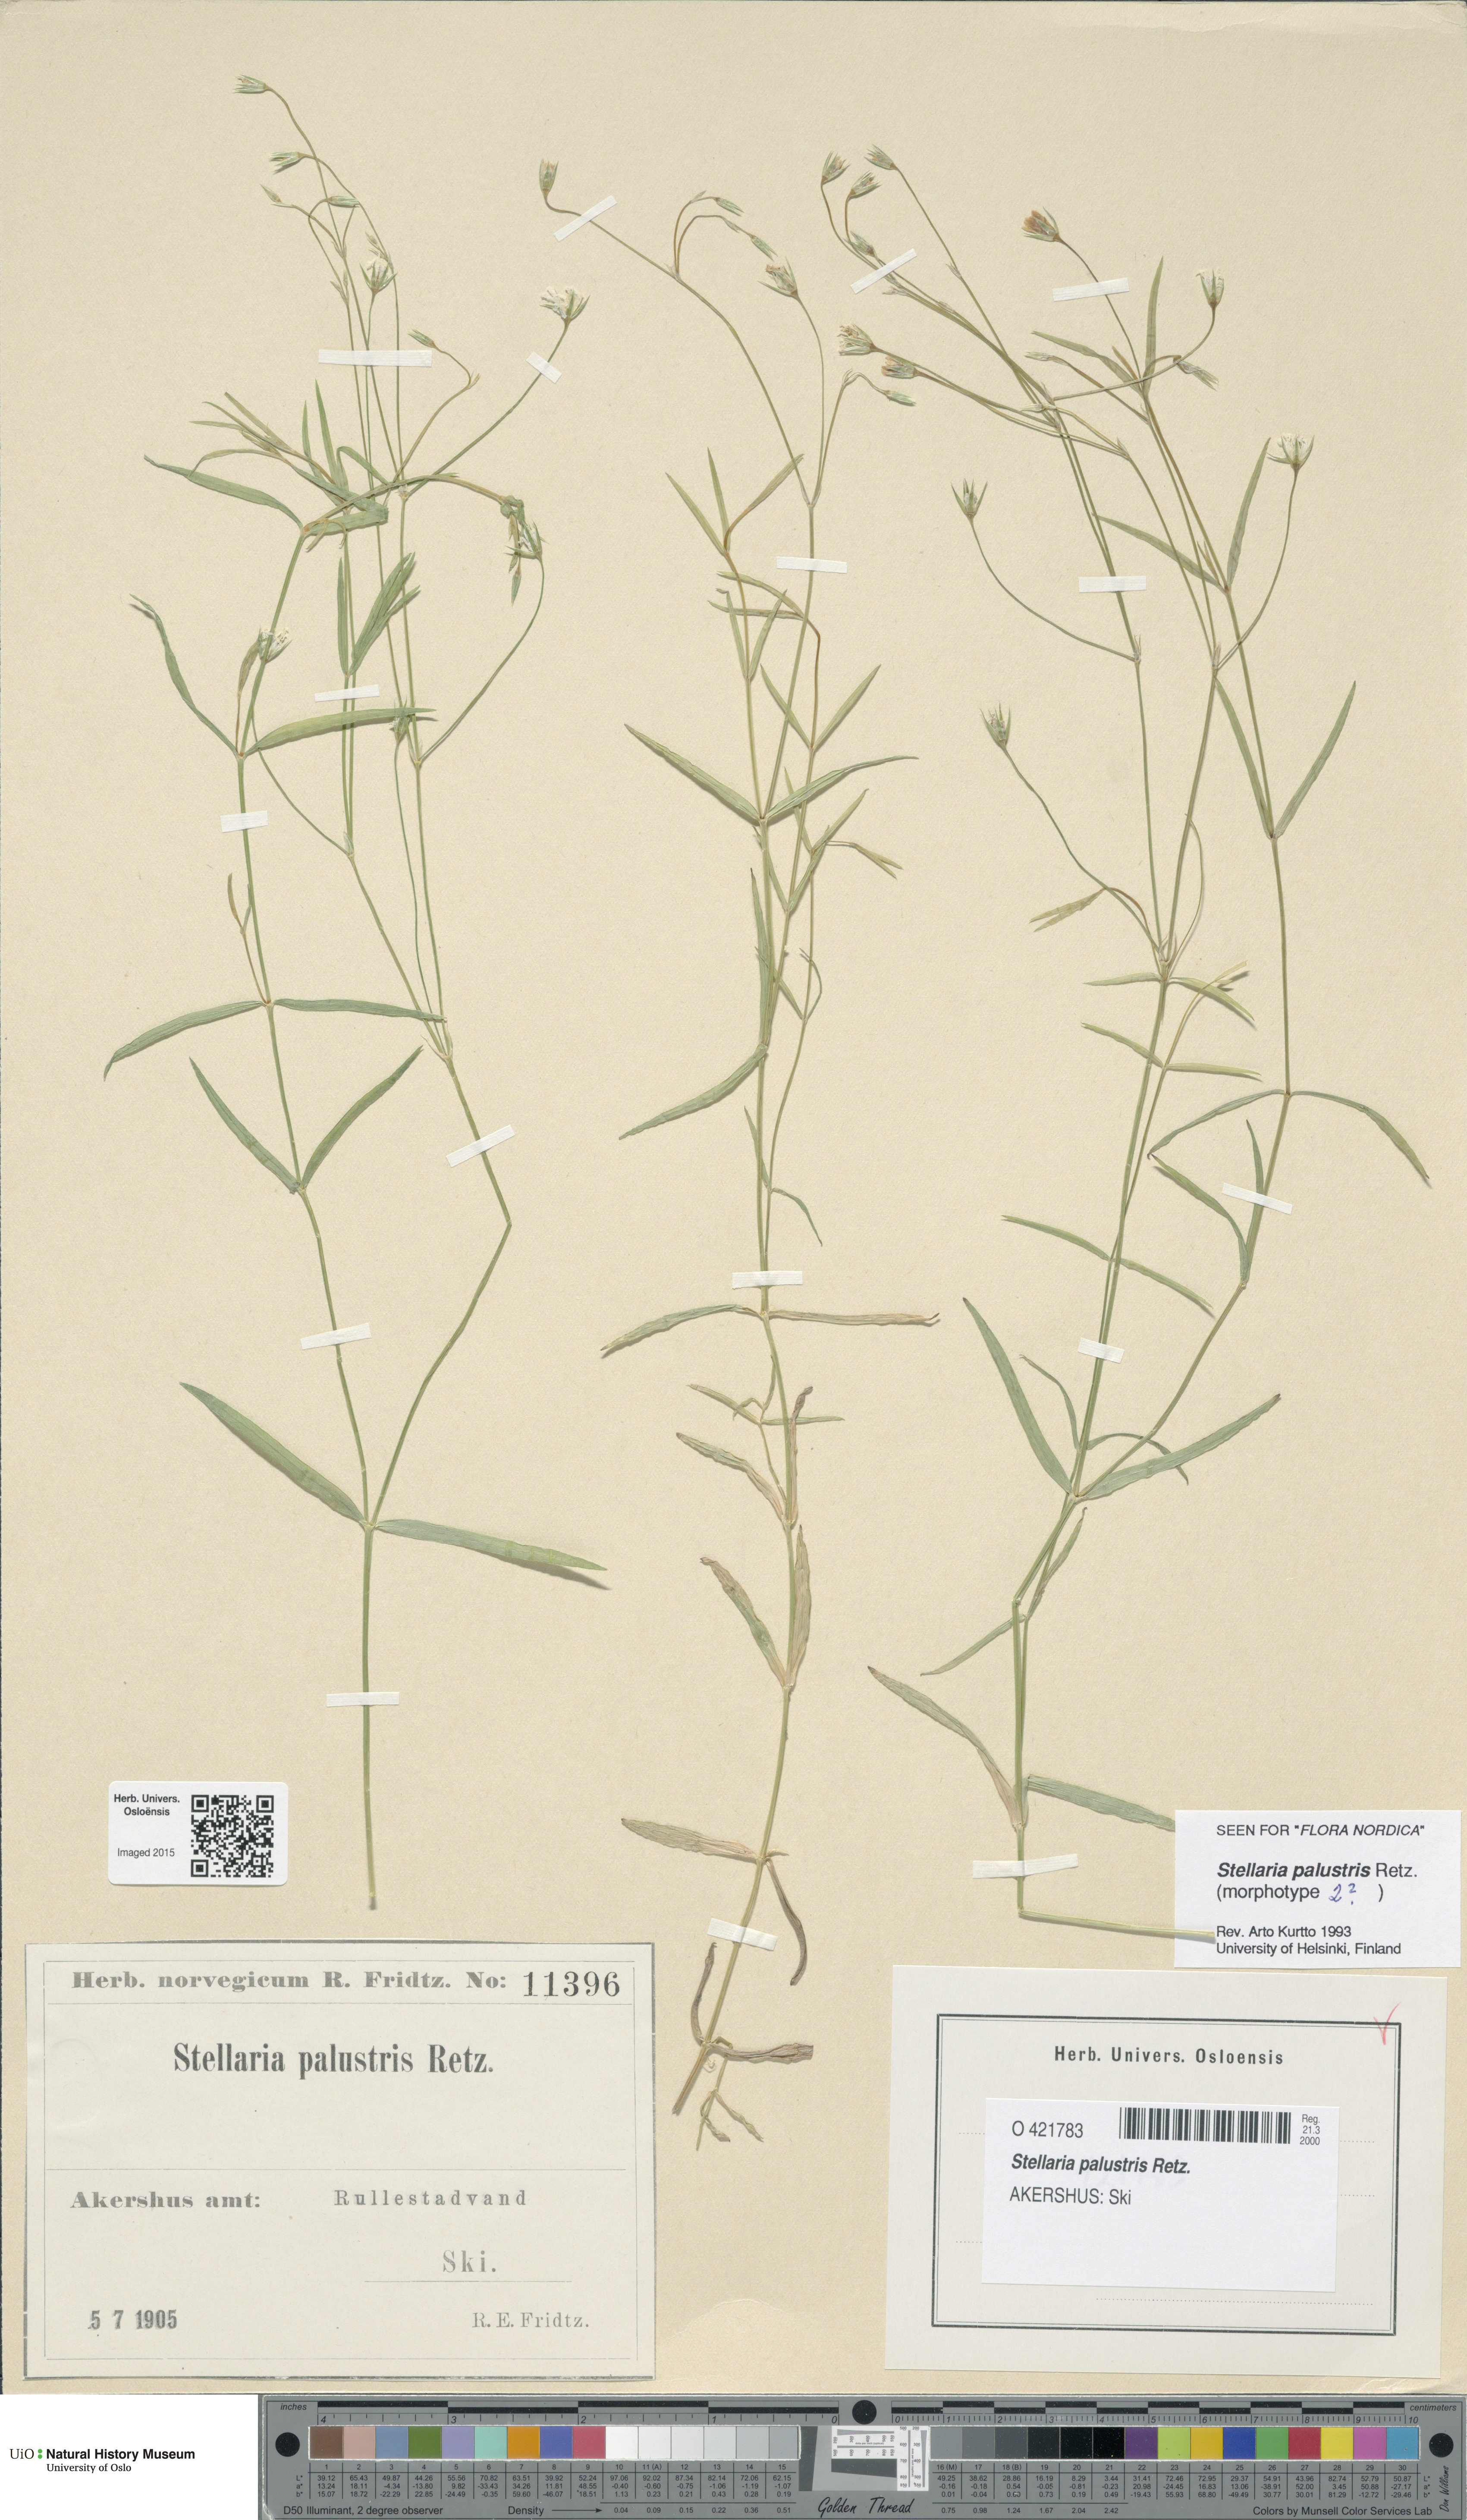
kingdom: Plantae
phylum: Tracheophyta
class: Magnoliopsida
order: Caryophyllales
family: Caryophyllaceae
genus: Stellaria
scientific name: Stellaria palustris
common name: Marsh stitchwort
